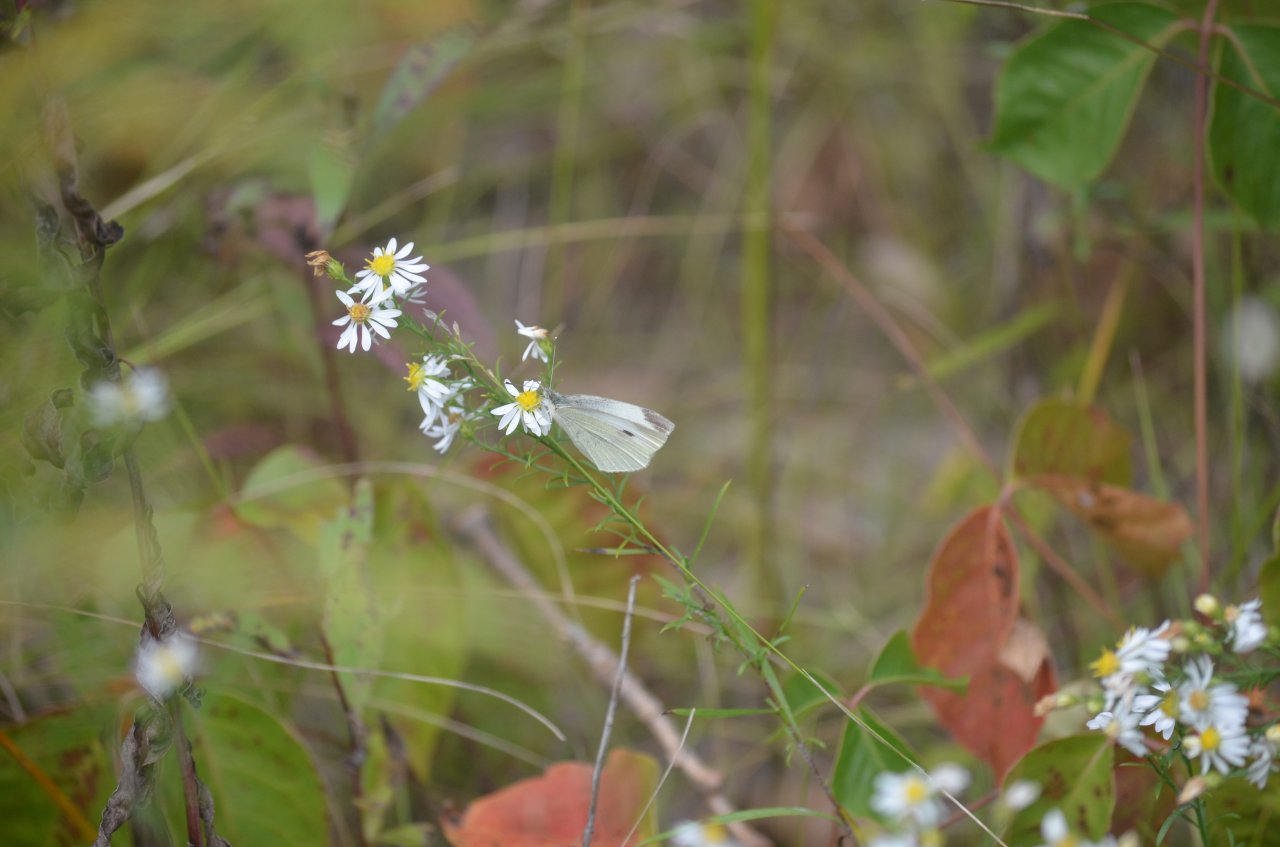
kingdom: Animalia
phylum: Arthropoda
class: Insecta
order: Lepidoptera
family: Pieridae
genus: Pieris
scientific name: Pieris rapae
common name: Cabbage White
